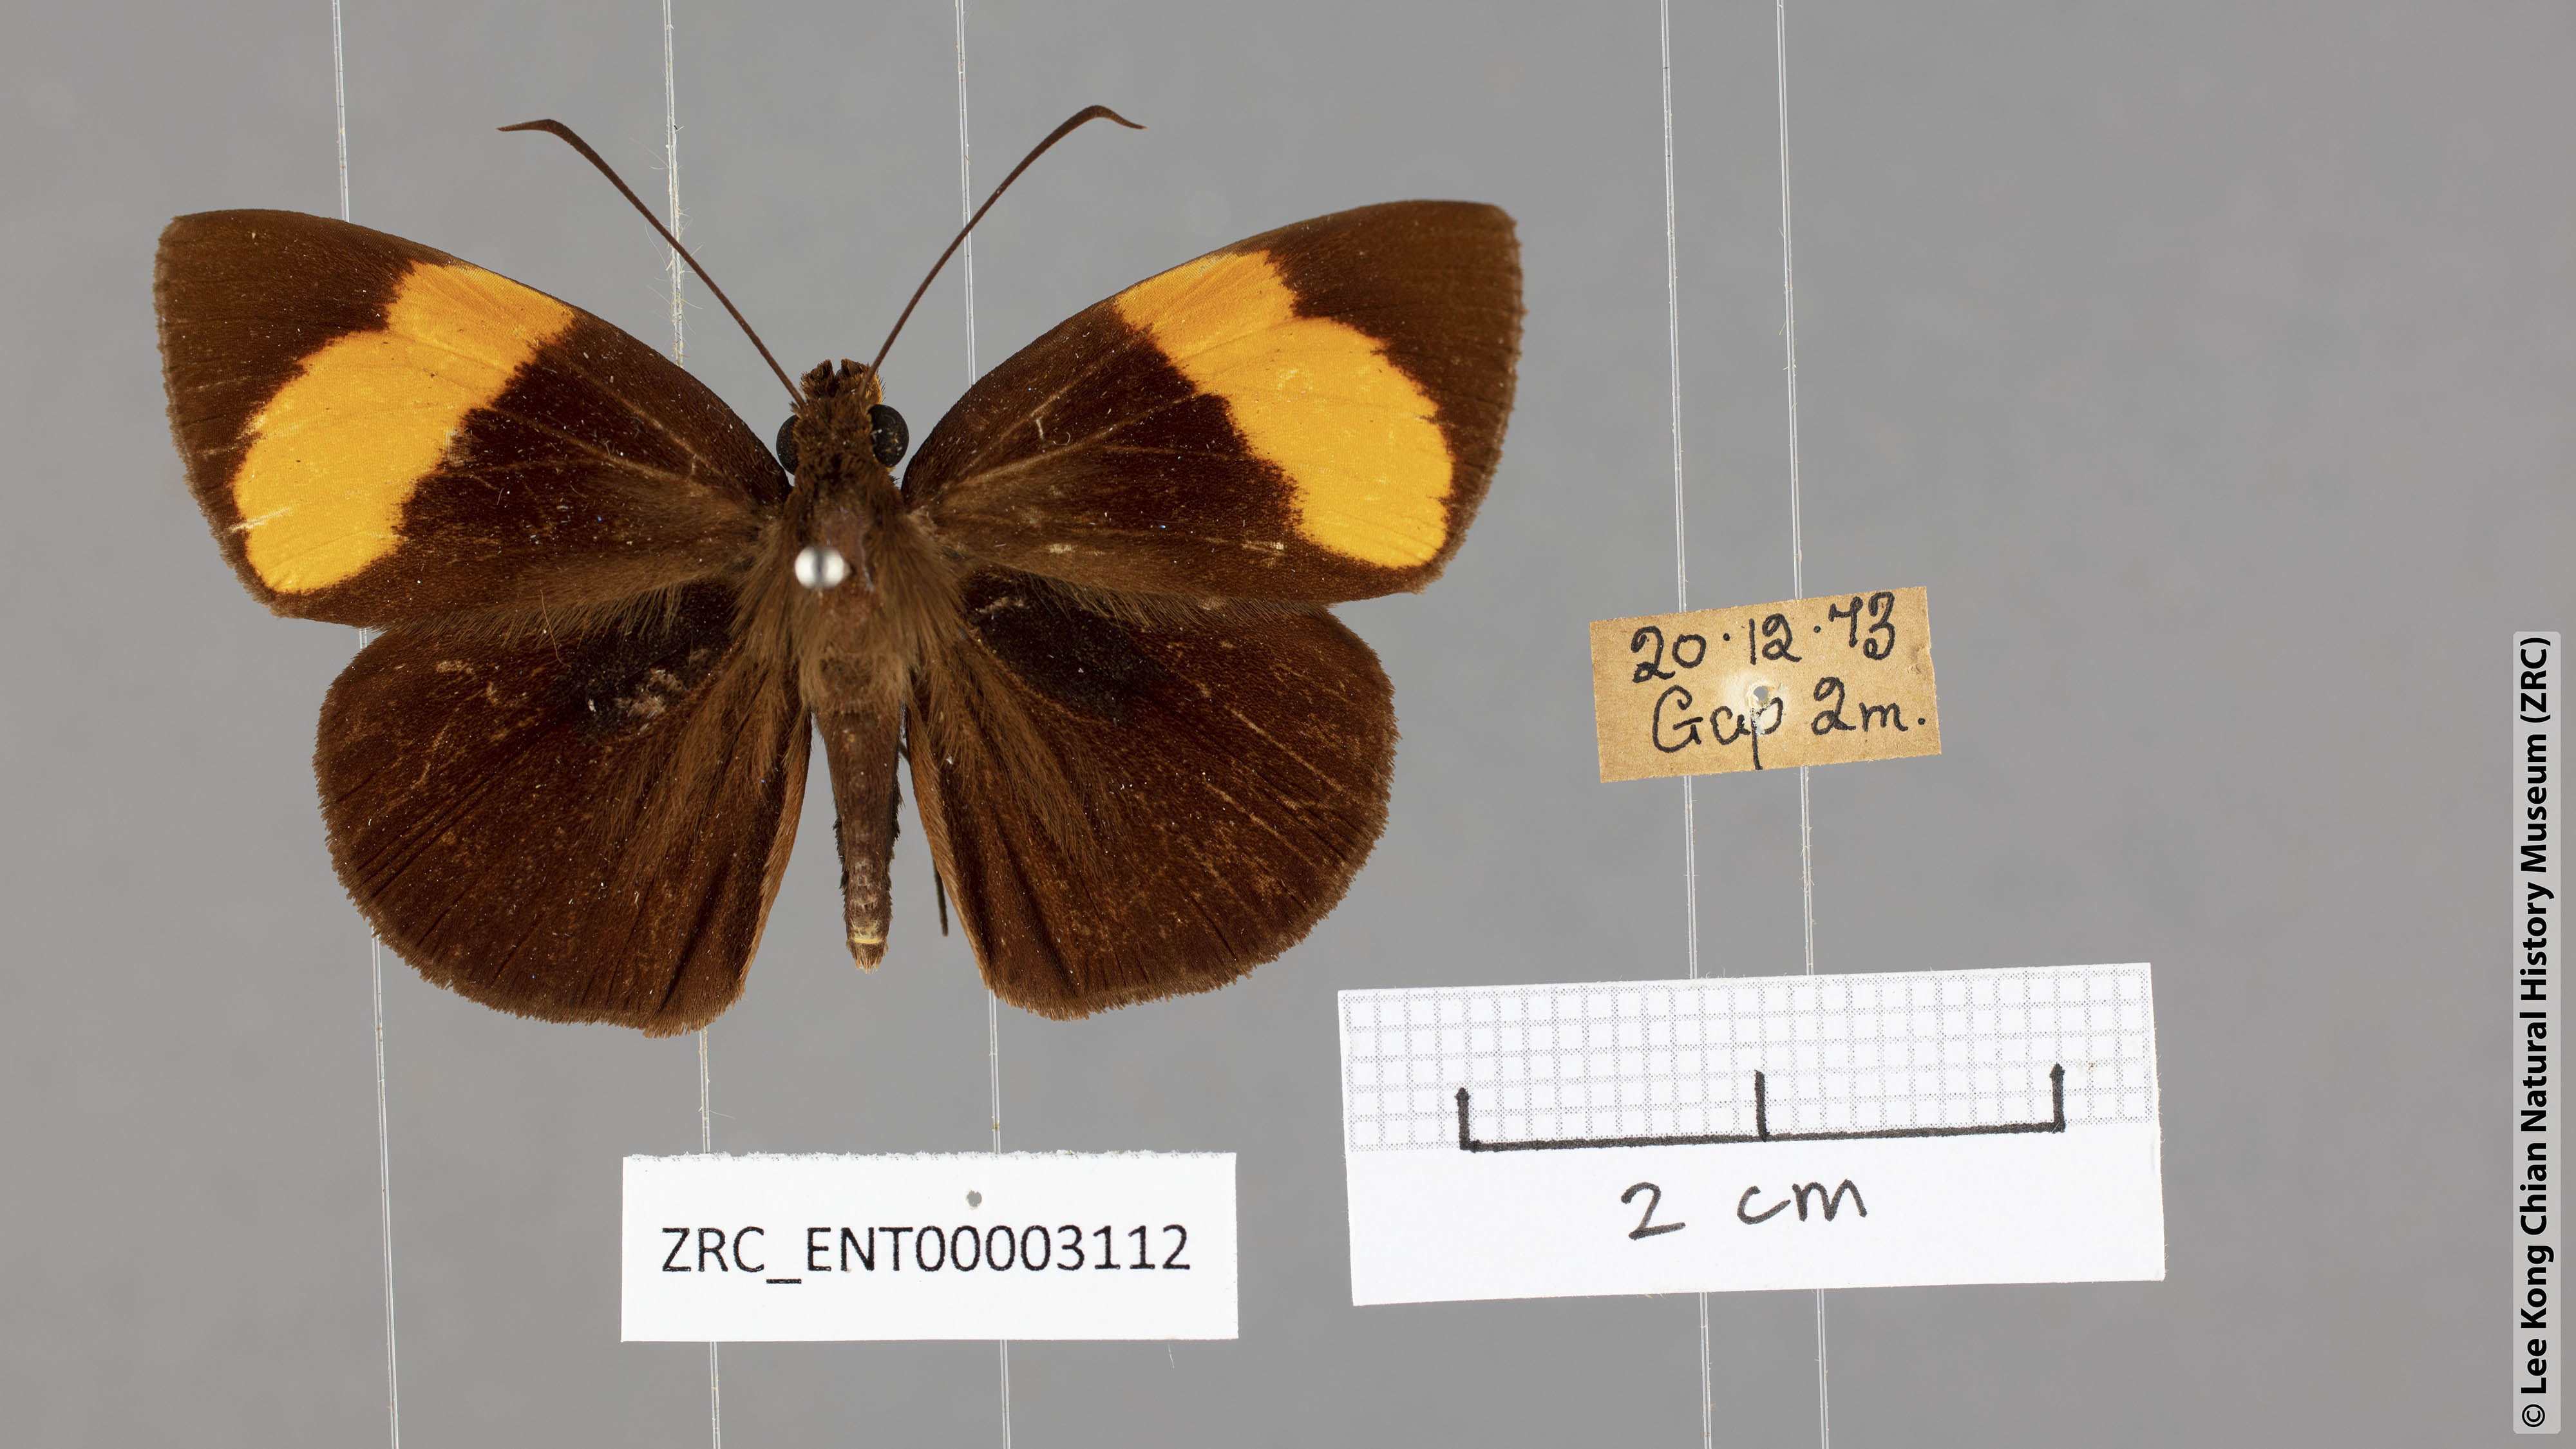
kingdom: Animalia
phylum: Arthropoda
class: Insecta
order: Lepidoptera
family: Hesperiidae
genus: Ancistroides
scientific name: Ancistroides armatus
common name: Red demon
